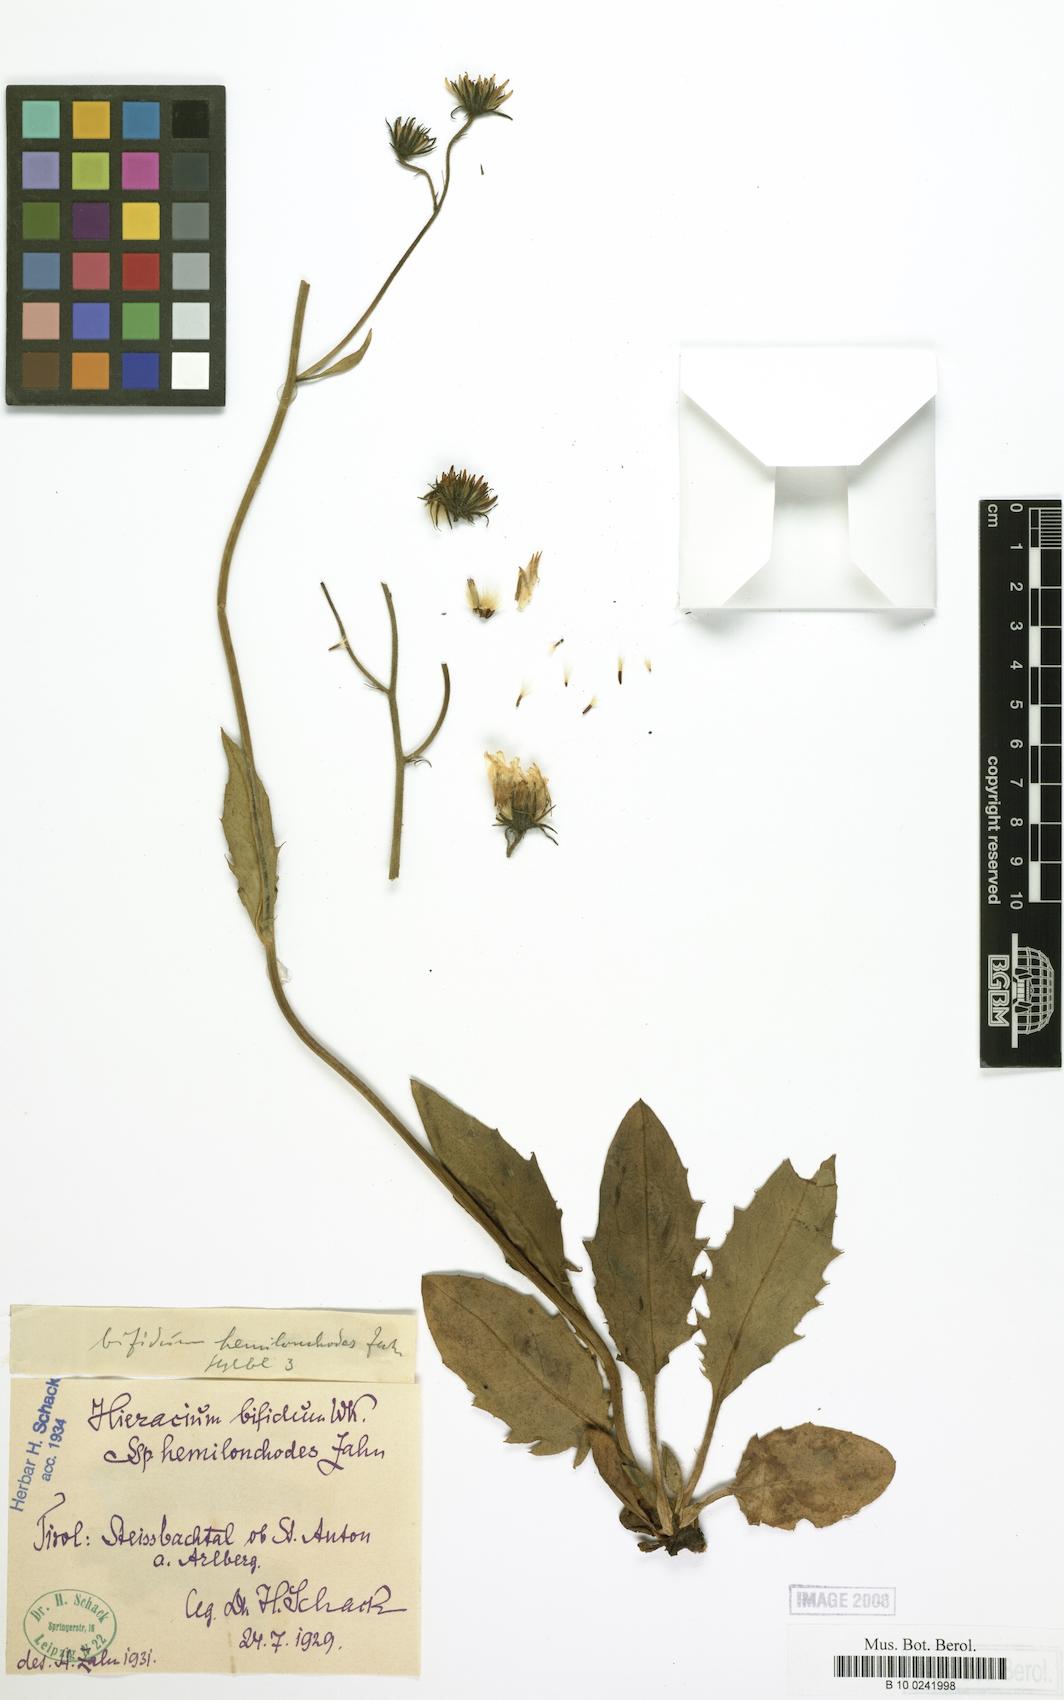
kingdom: Plantae
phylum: Tracheophyta
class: Magnoliopsida
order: Asterales
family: Asteraceae
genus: Hieracium
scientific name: Hieracium bifidum
